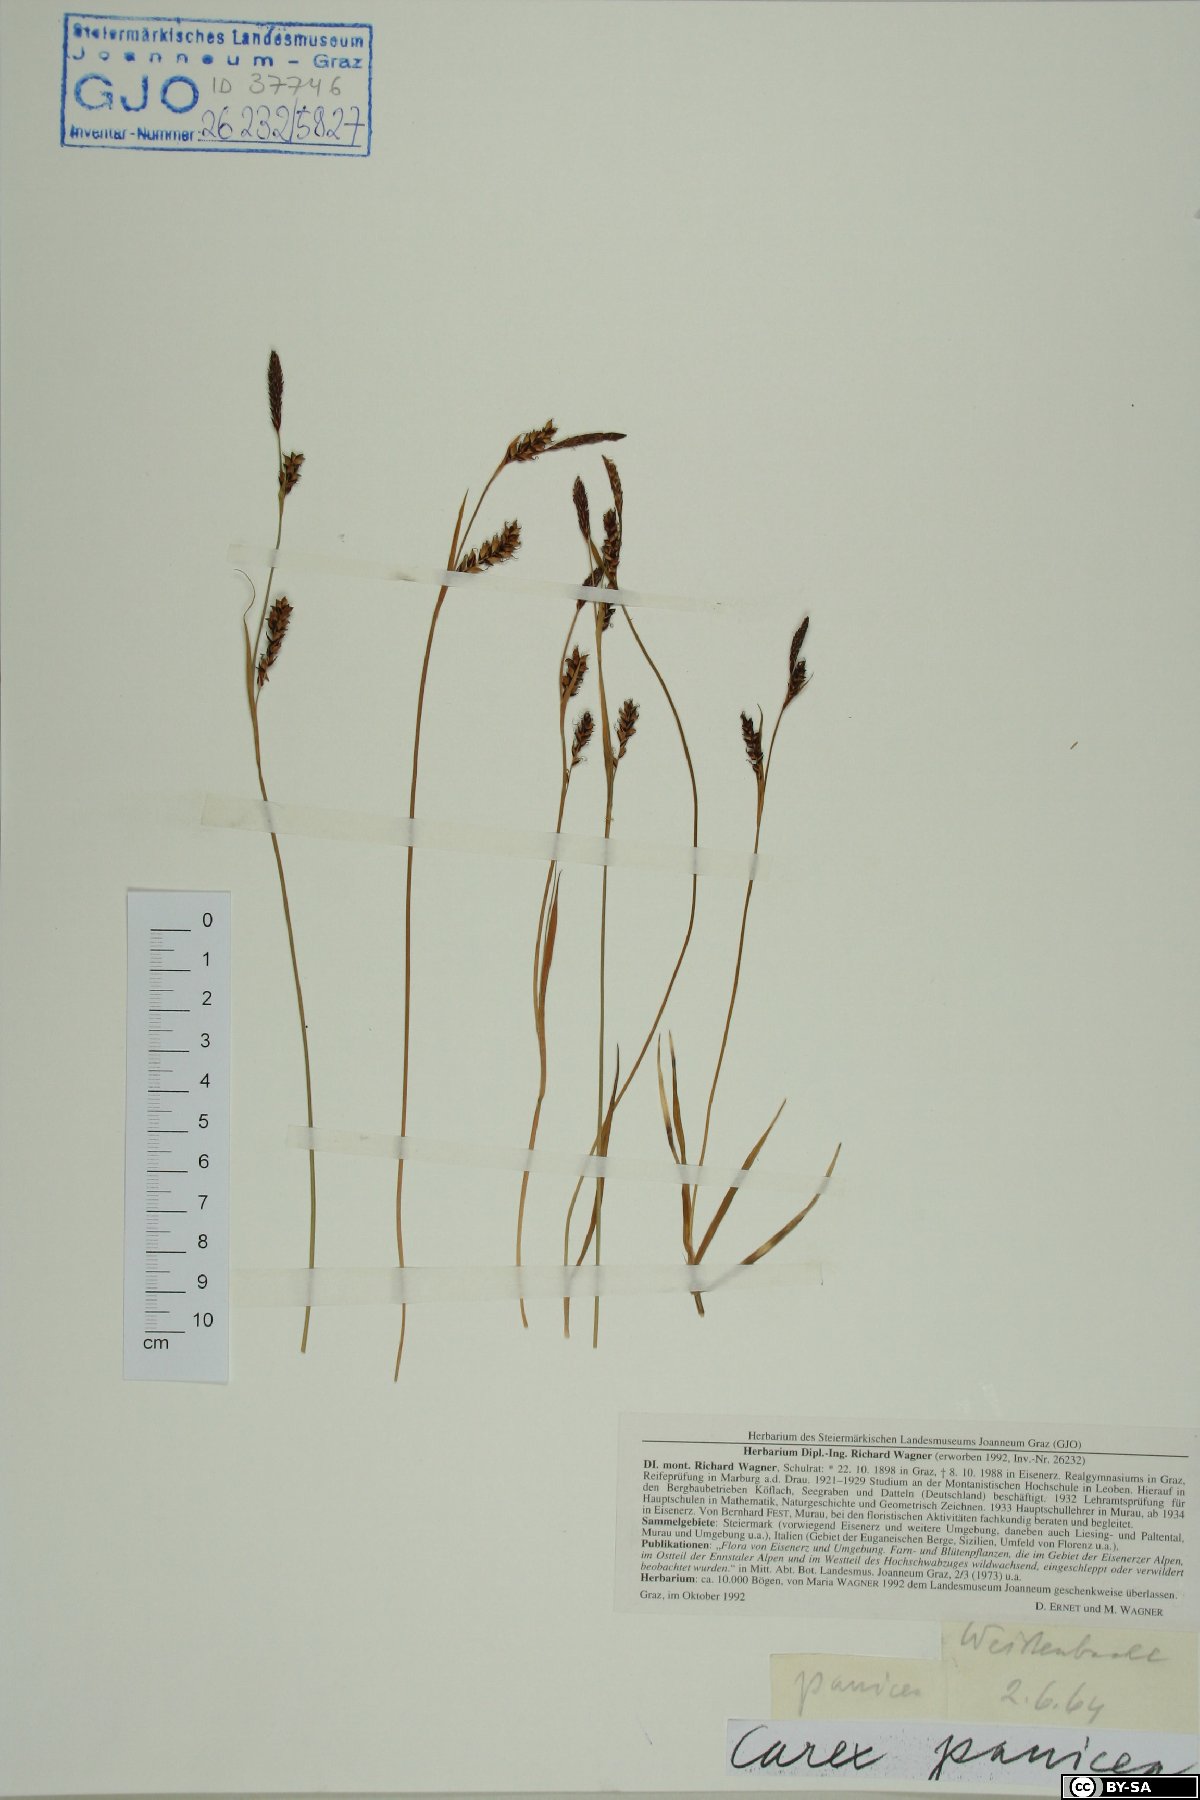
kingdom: Plantae
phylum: Tracheophyta
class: Liliopsida
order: Poales
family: Cyperaceae
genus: Carex
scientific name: Carex panicea
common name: Carnation sedge
